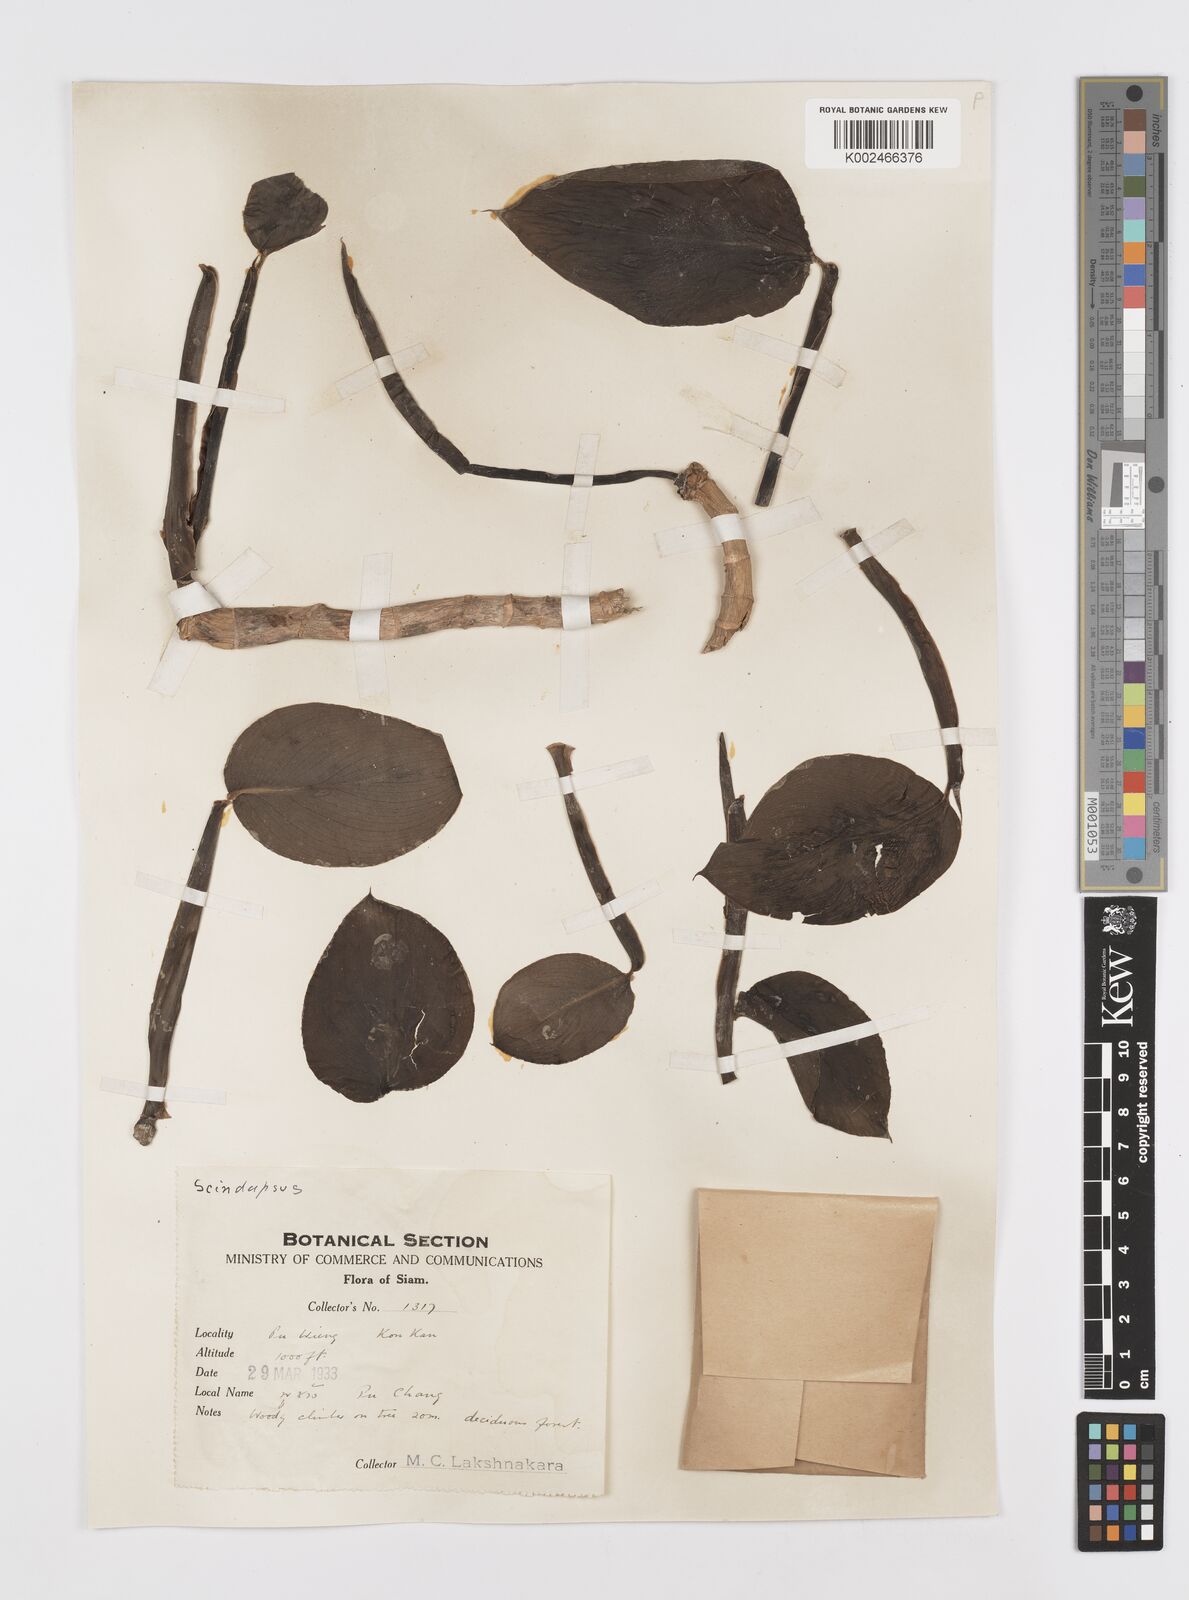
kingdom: Plantae
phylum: Tracheophyta
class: Liliopsida
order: Alismatales
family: Araceae
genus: Scindapsus
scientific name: Scindapsus officinalis
